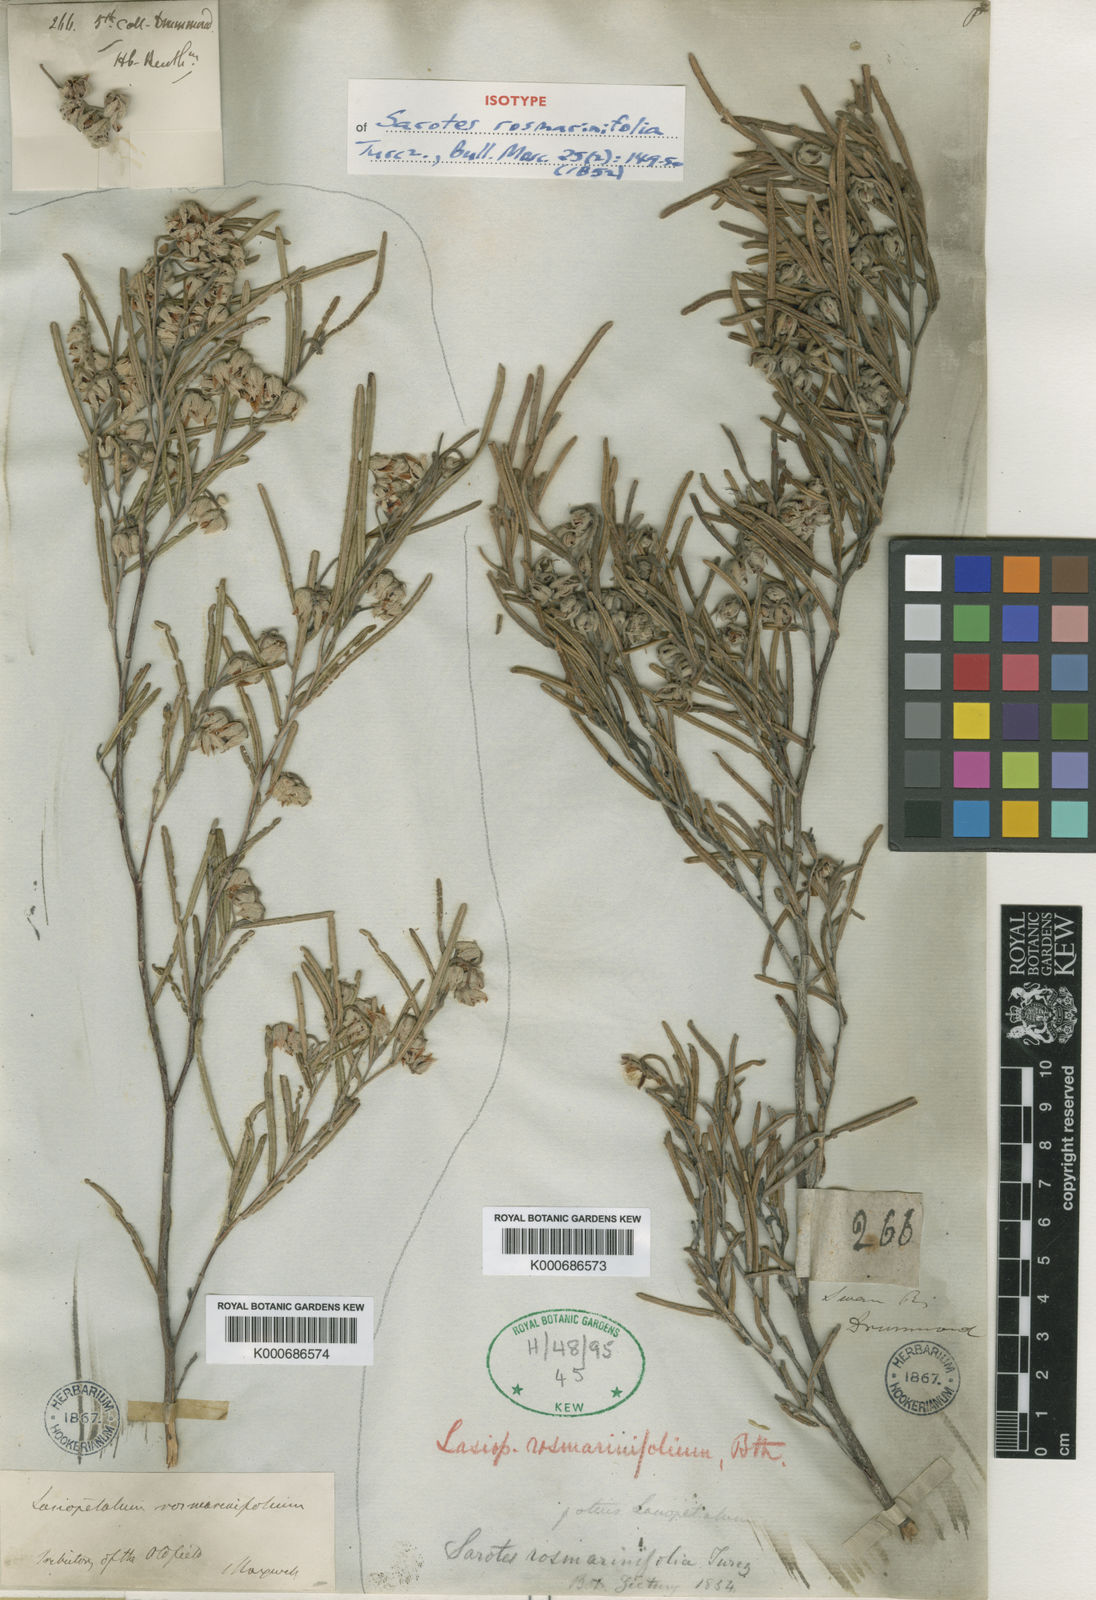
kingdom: Plantae
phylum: Tracheophyta
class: Magnoliopsida
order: Malvales
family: Malvaceae
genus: Lasiopetalum
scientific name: Lasiopetalum rosmarinifolium
